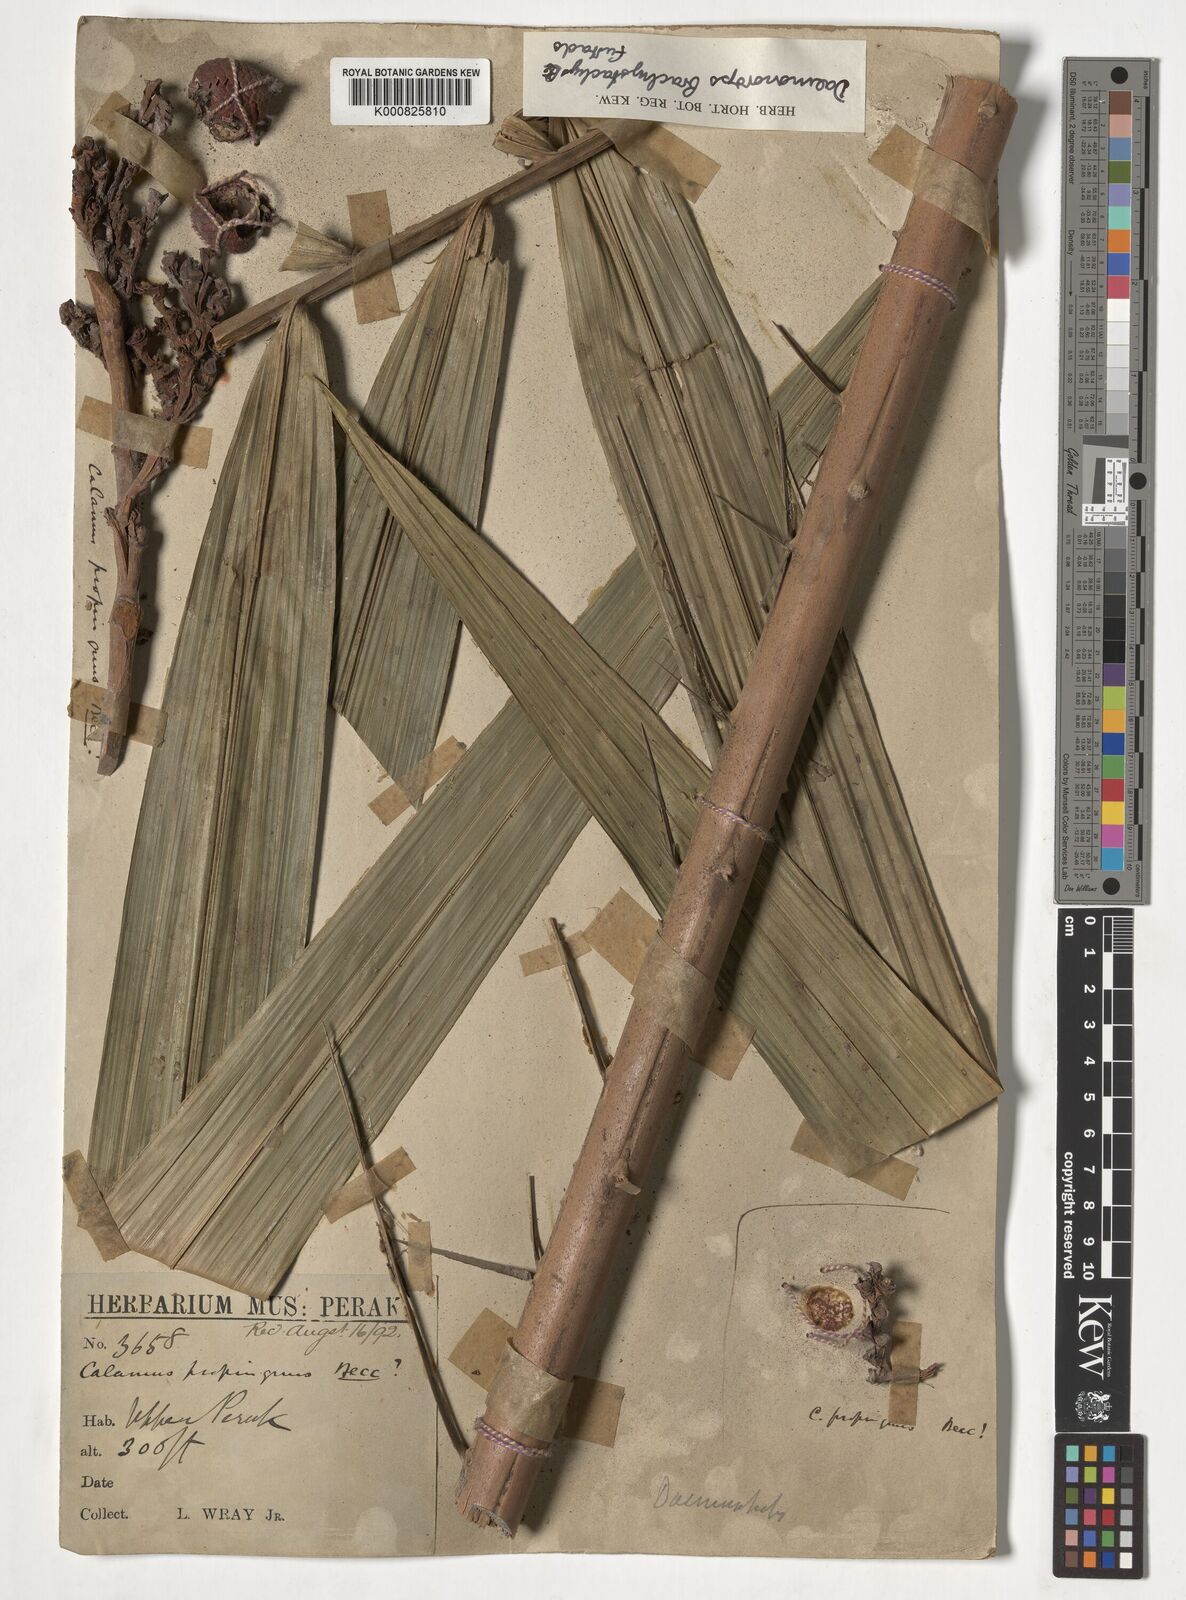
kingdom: Plantae
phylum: Tracheophyta
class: Liliopsida
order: Arecales
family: Arecaceae
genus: Calamus
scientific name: Calamus propinquus
